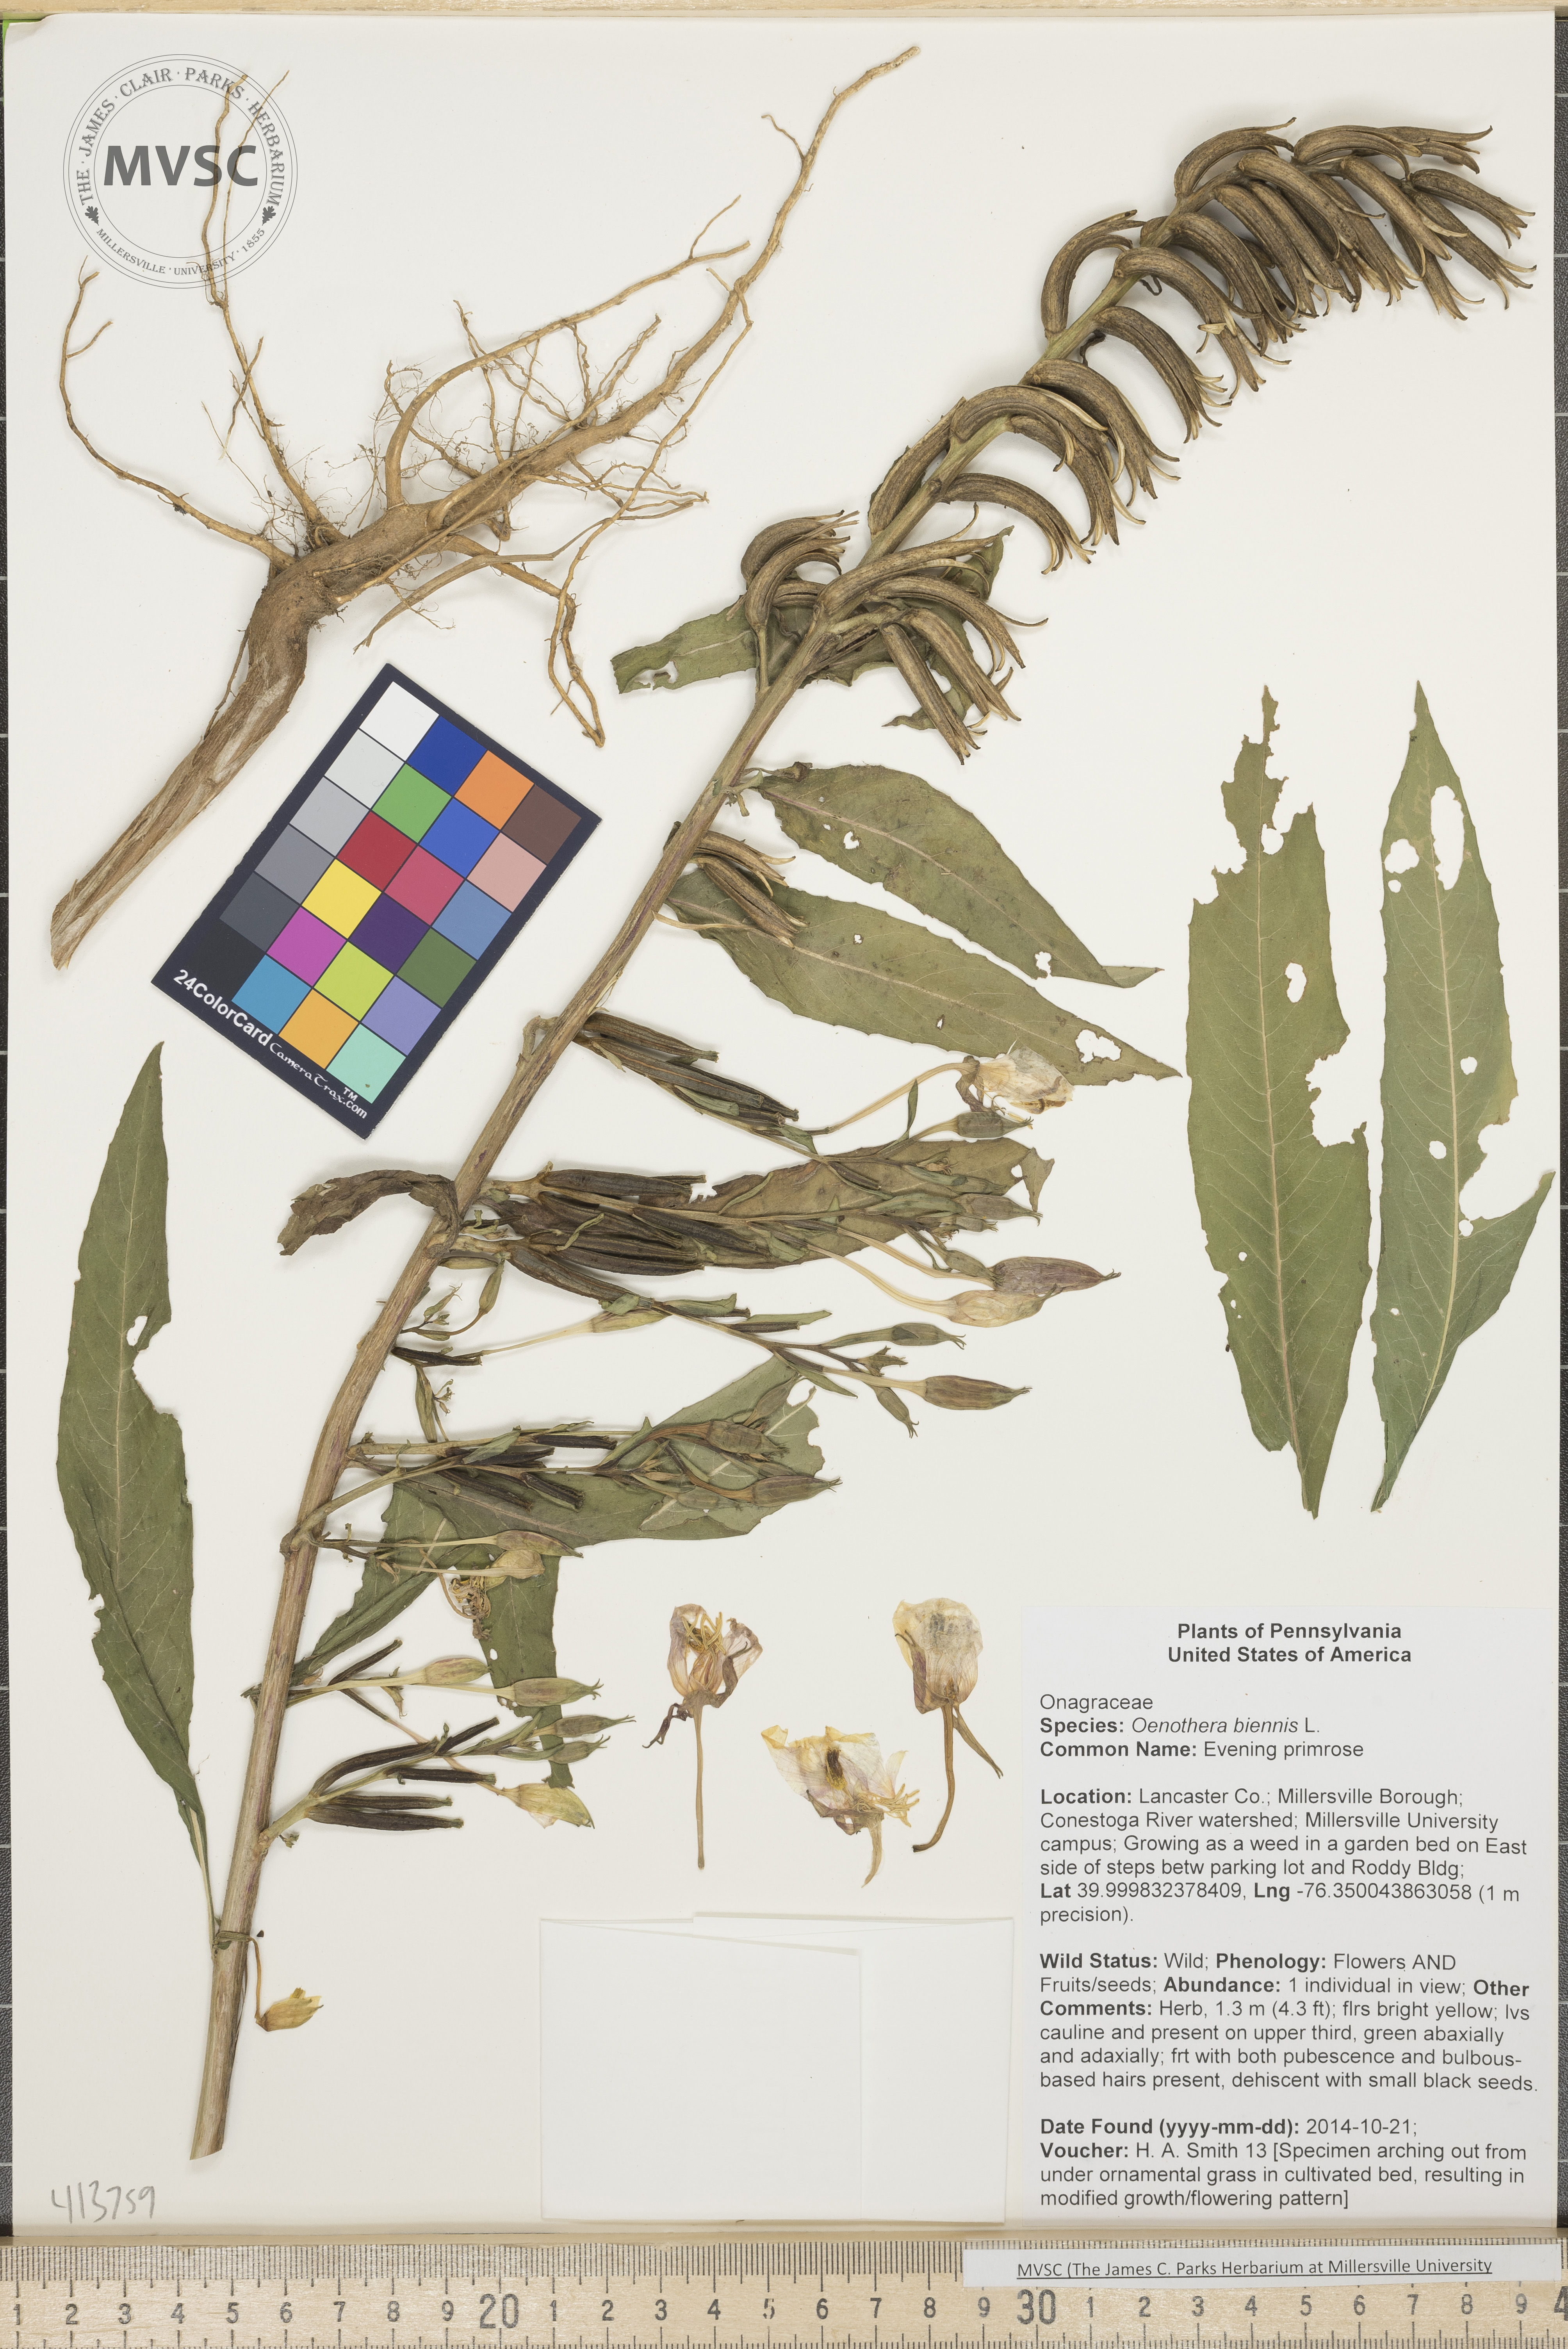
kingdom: Plantae
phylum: Tracheophyta
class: Magnoliopsida
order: Myrtales
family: Onagraceae
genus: Oenothera
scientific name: Oenothera biennis
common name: Evening primrose
